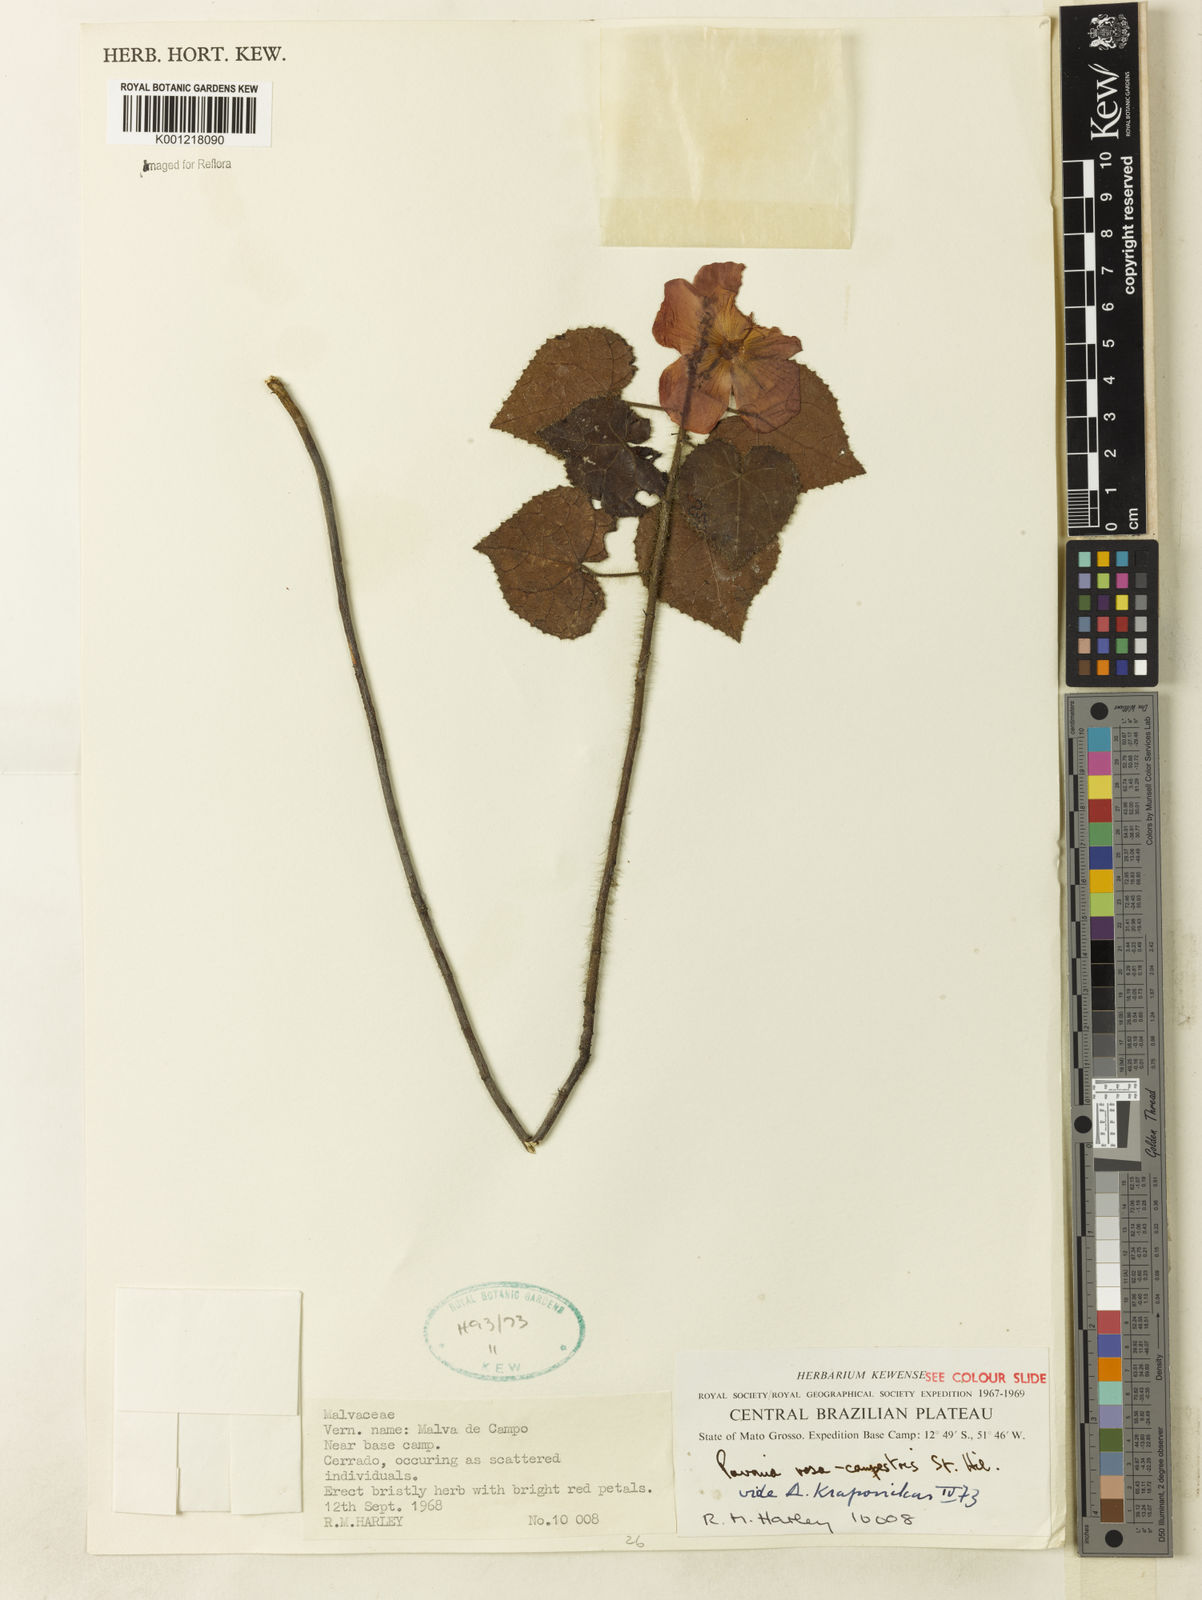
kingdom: Plantae
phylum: Tracheophyta
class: Magnoliopsida
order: Malvales
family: Malvaceae
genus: Pavonia
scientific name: Pavonia rosa-campestris
